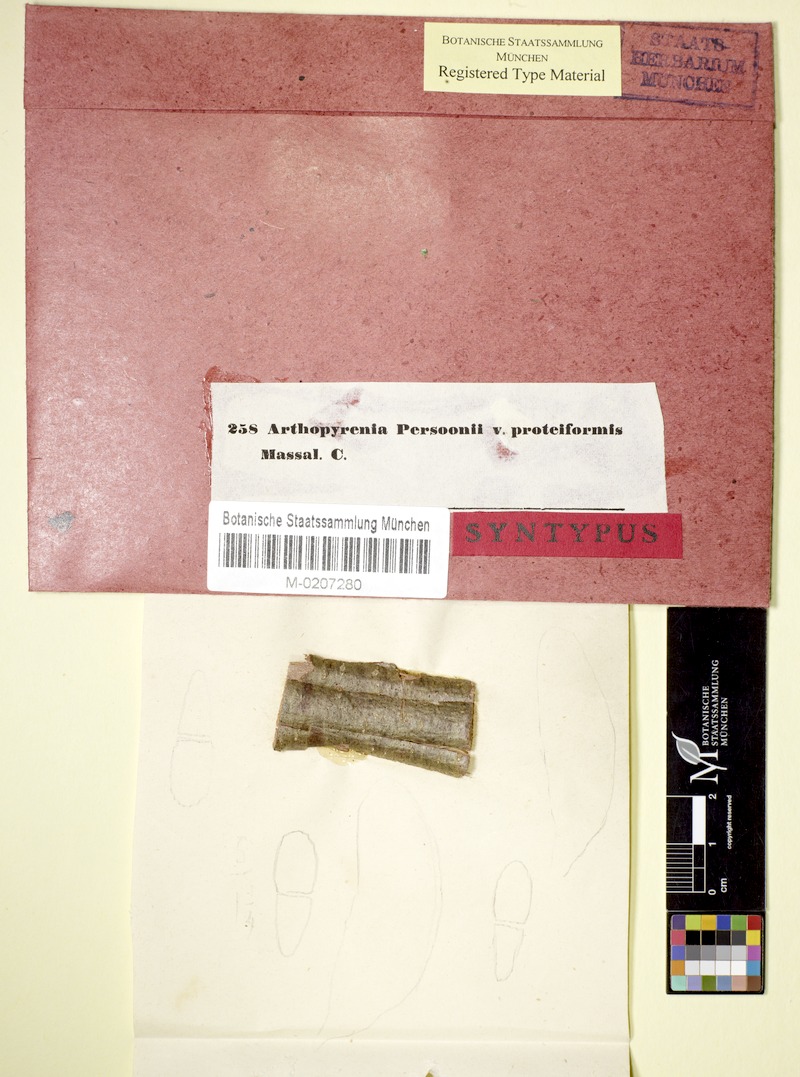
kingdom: Fungi
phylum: Ascomycota
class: Dothideomycetes
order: Pleosporales
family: Naetrocymbaceae
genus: Naetrocymbe
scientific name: Naetrocymbe punctiformis
